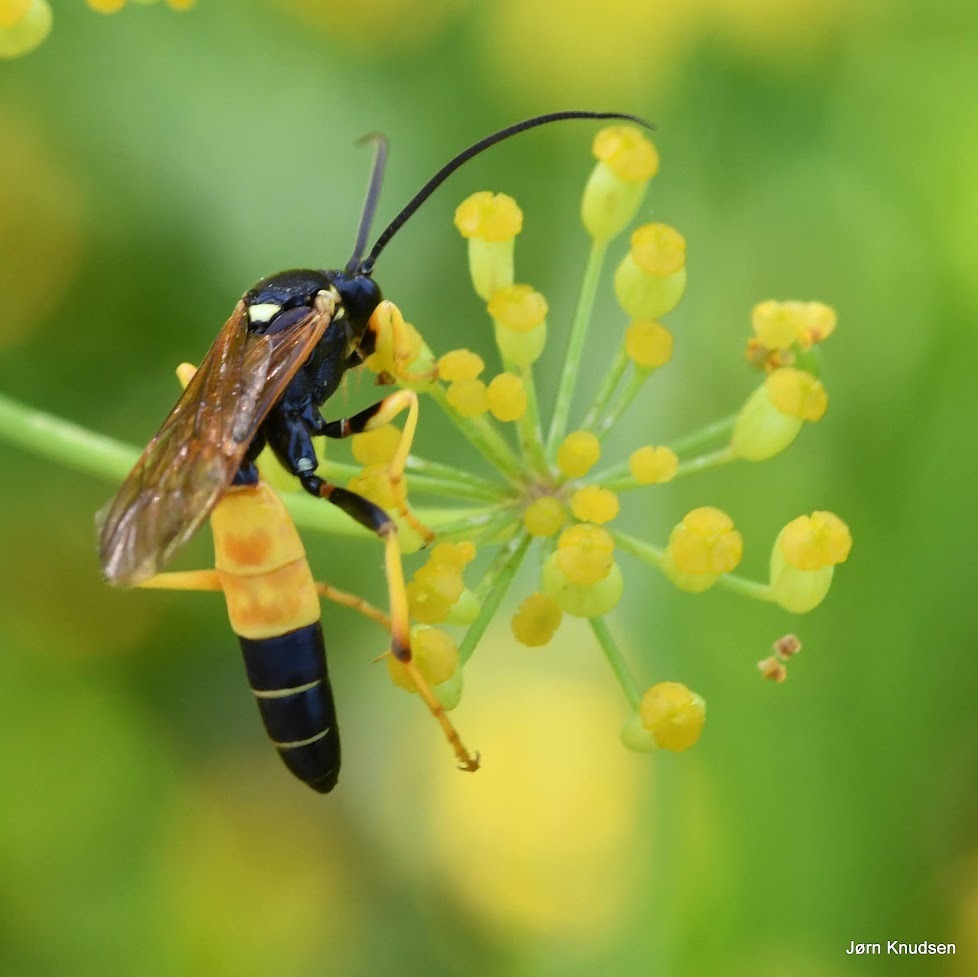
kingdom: Animalia
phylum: Arthropoda
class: Insecta
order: Hymenoptera
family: Ichneumonidae
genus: Diphyus
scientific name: Diphyus amatorius
